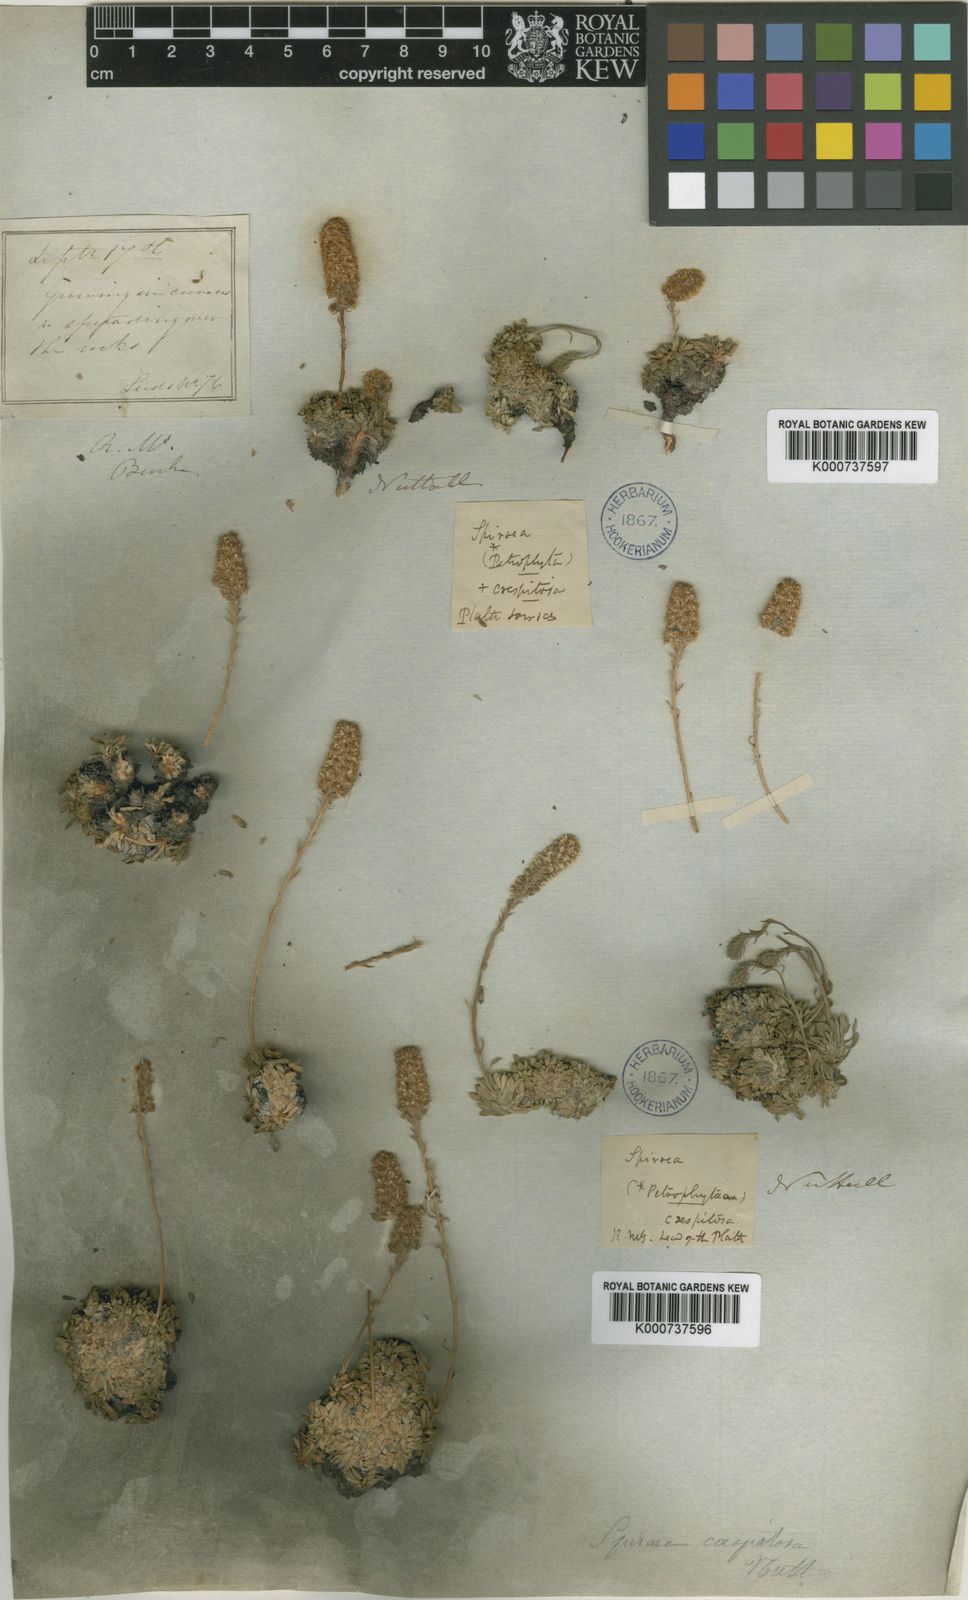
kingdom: Plantae
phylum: Tracheophyta
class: Magnoliopsida
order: Rosales
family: Rosaceae
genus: Sibiraea
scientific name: Sibiraea
